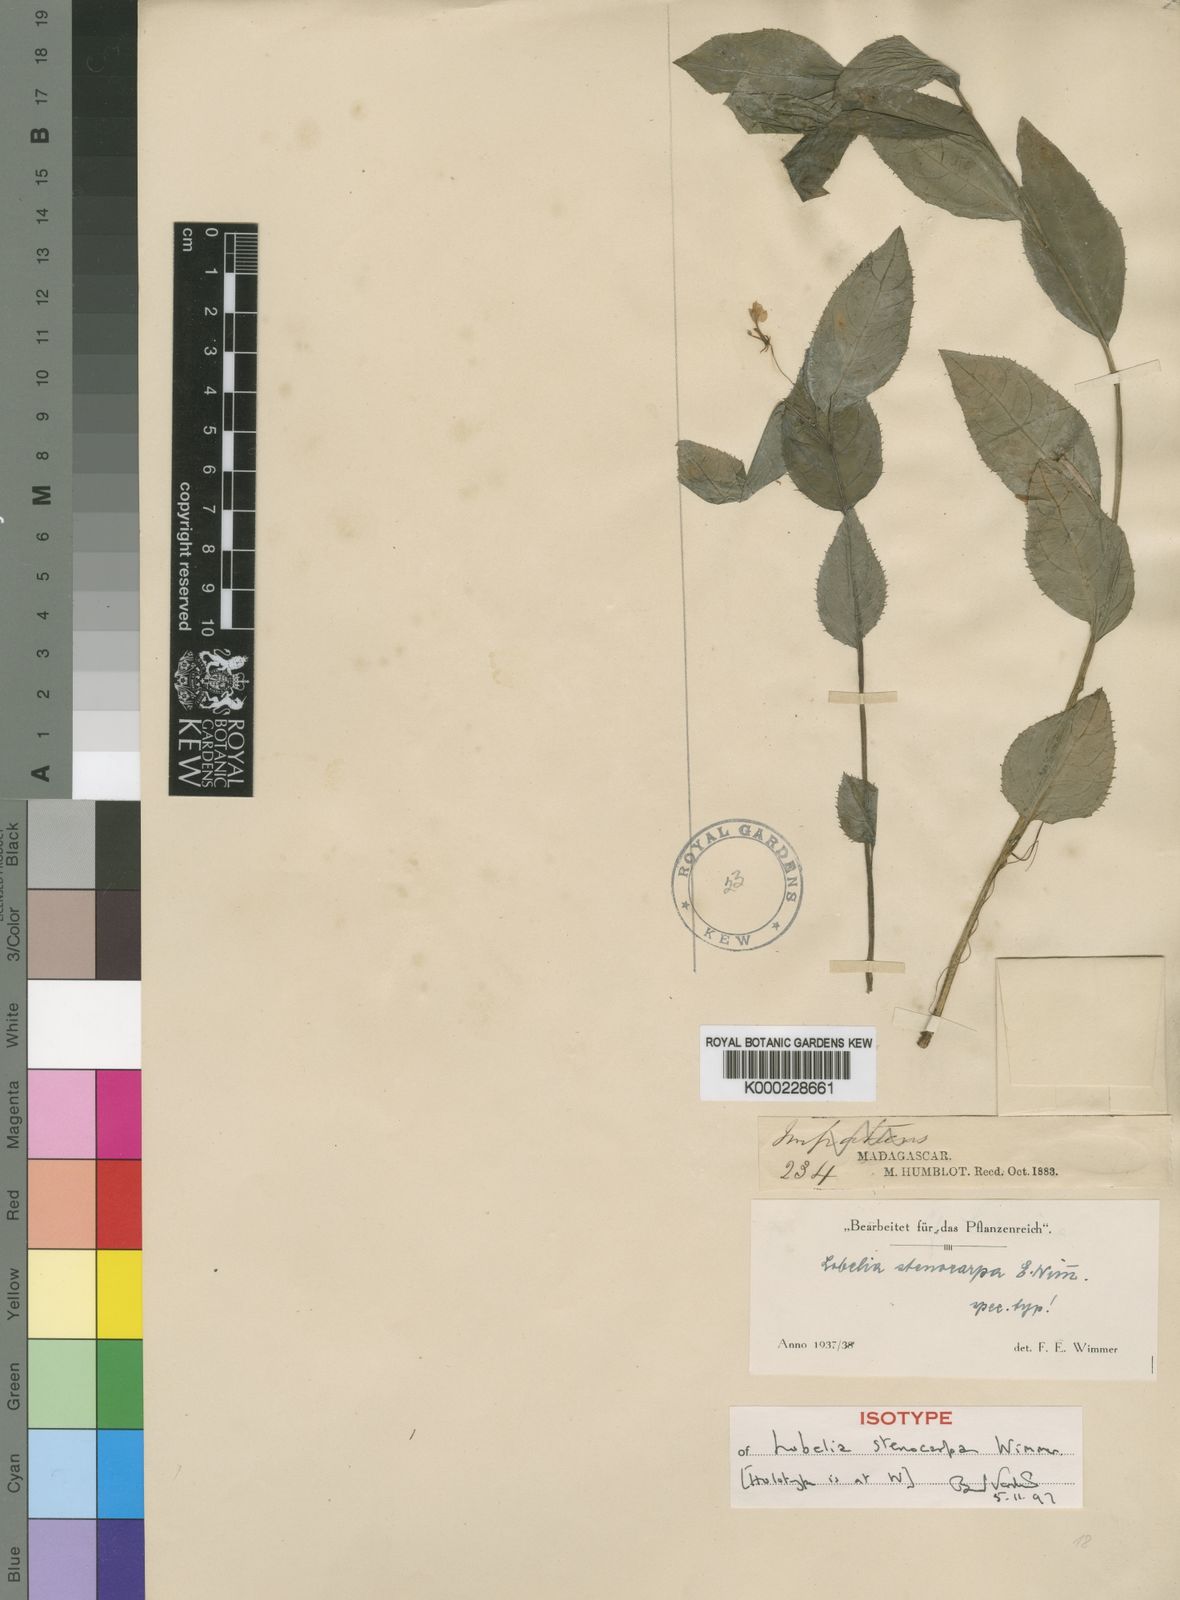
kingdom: Plantae
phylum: Tracheophyta
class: Magnoliopsida
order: Asterales
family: Campanulaceae
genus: Lobelia
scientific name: Lobelia stenocarpa
